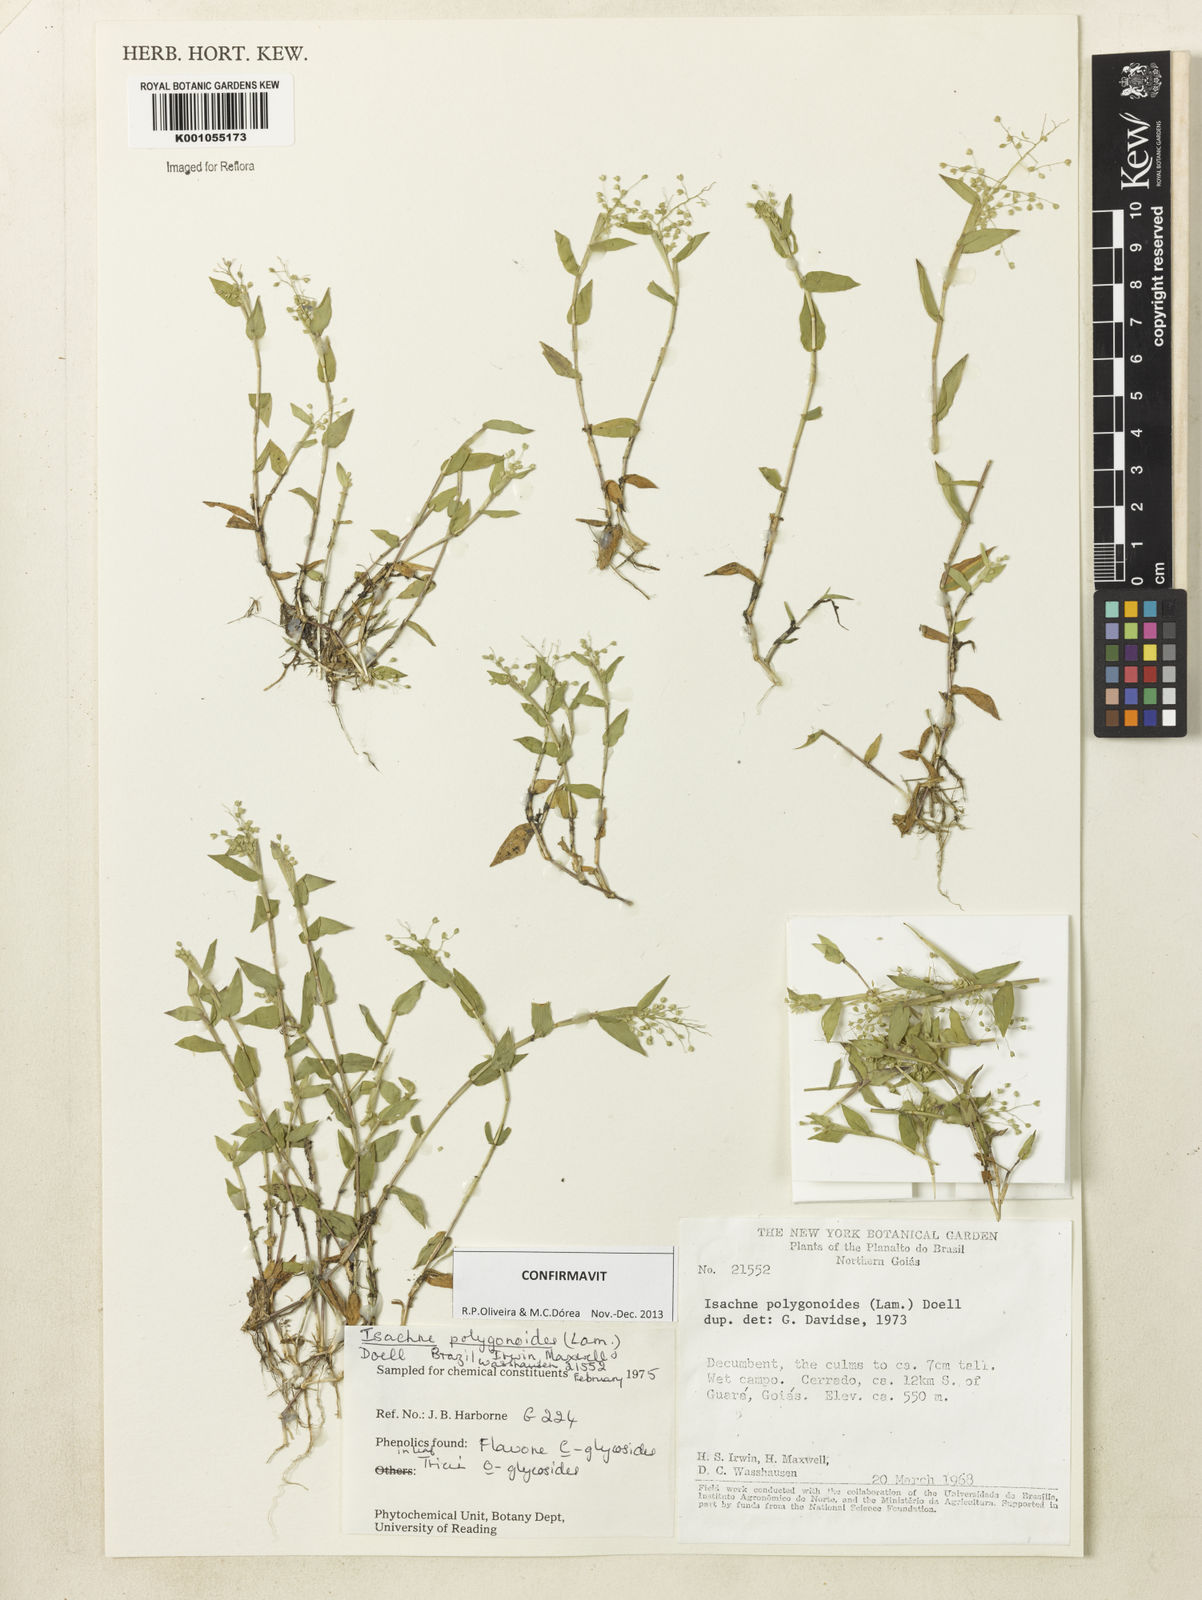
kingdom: Plantae
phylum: Tracheophyta
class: Liliopsida
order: Poales
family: Poaceae
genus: Isachne
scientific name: Isachne
